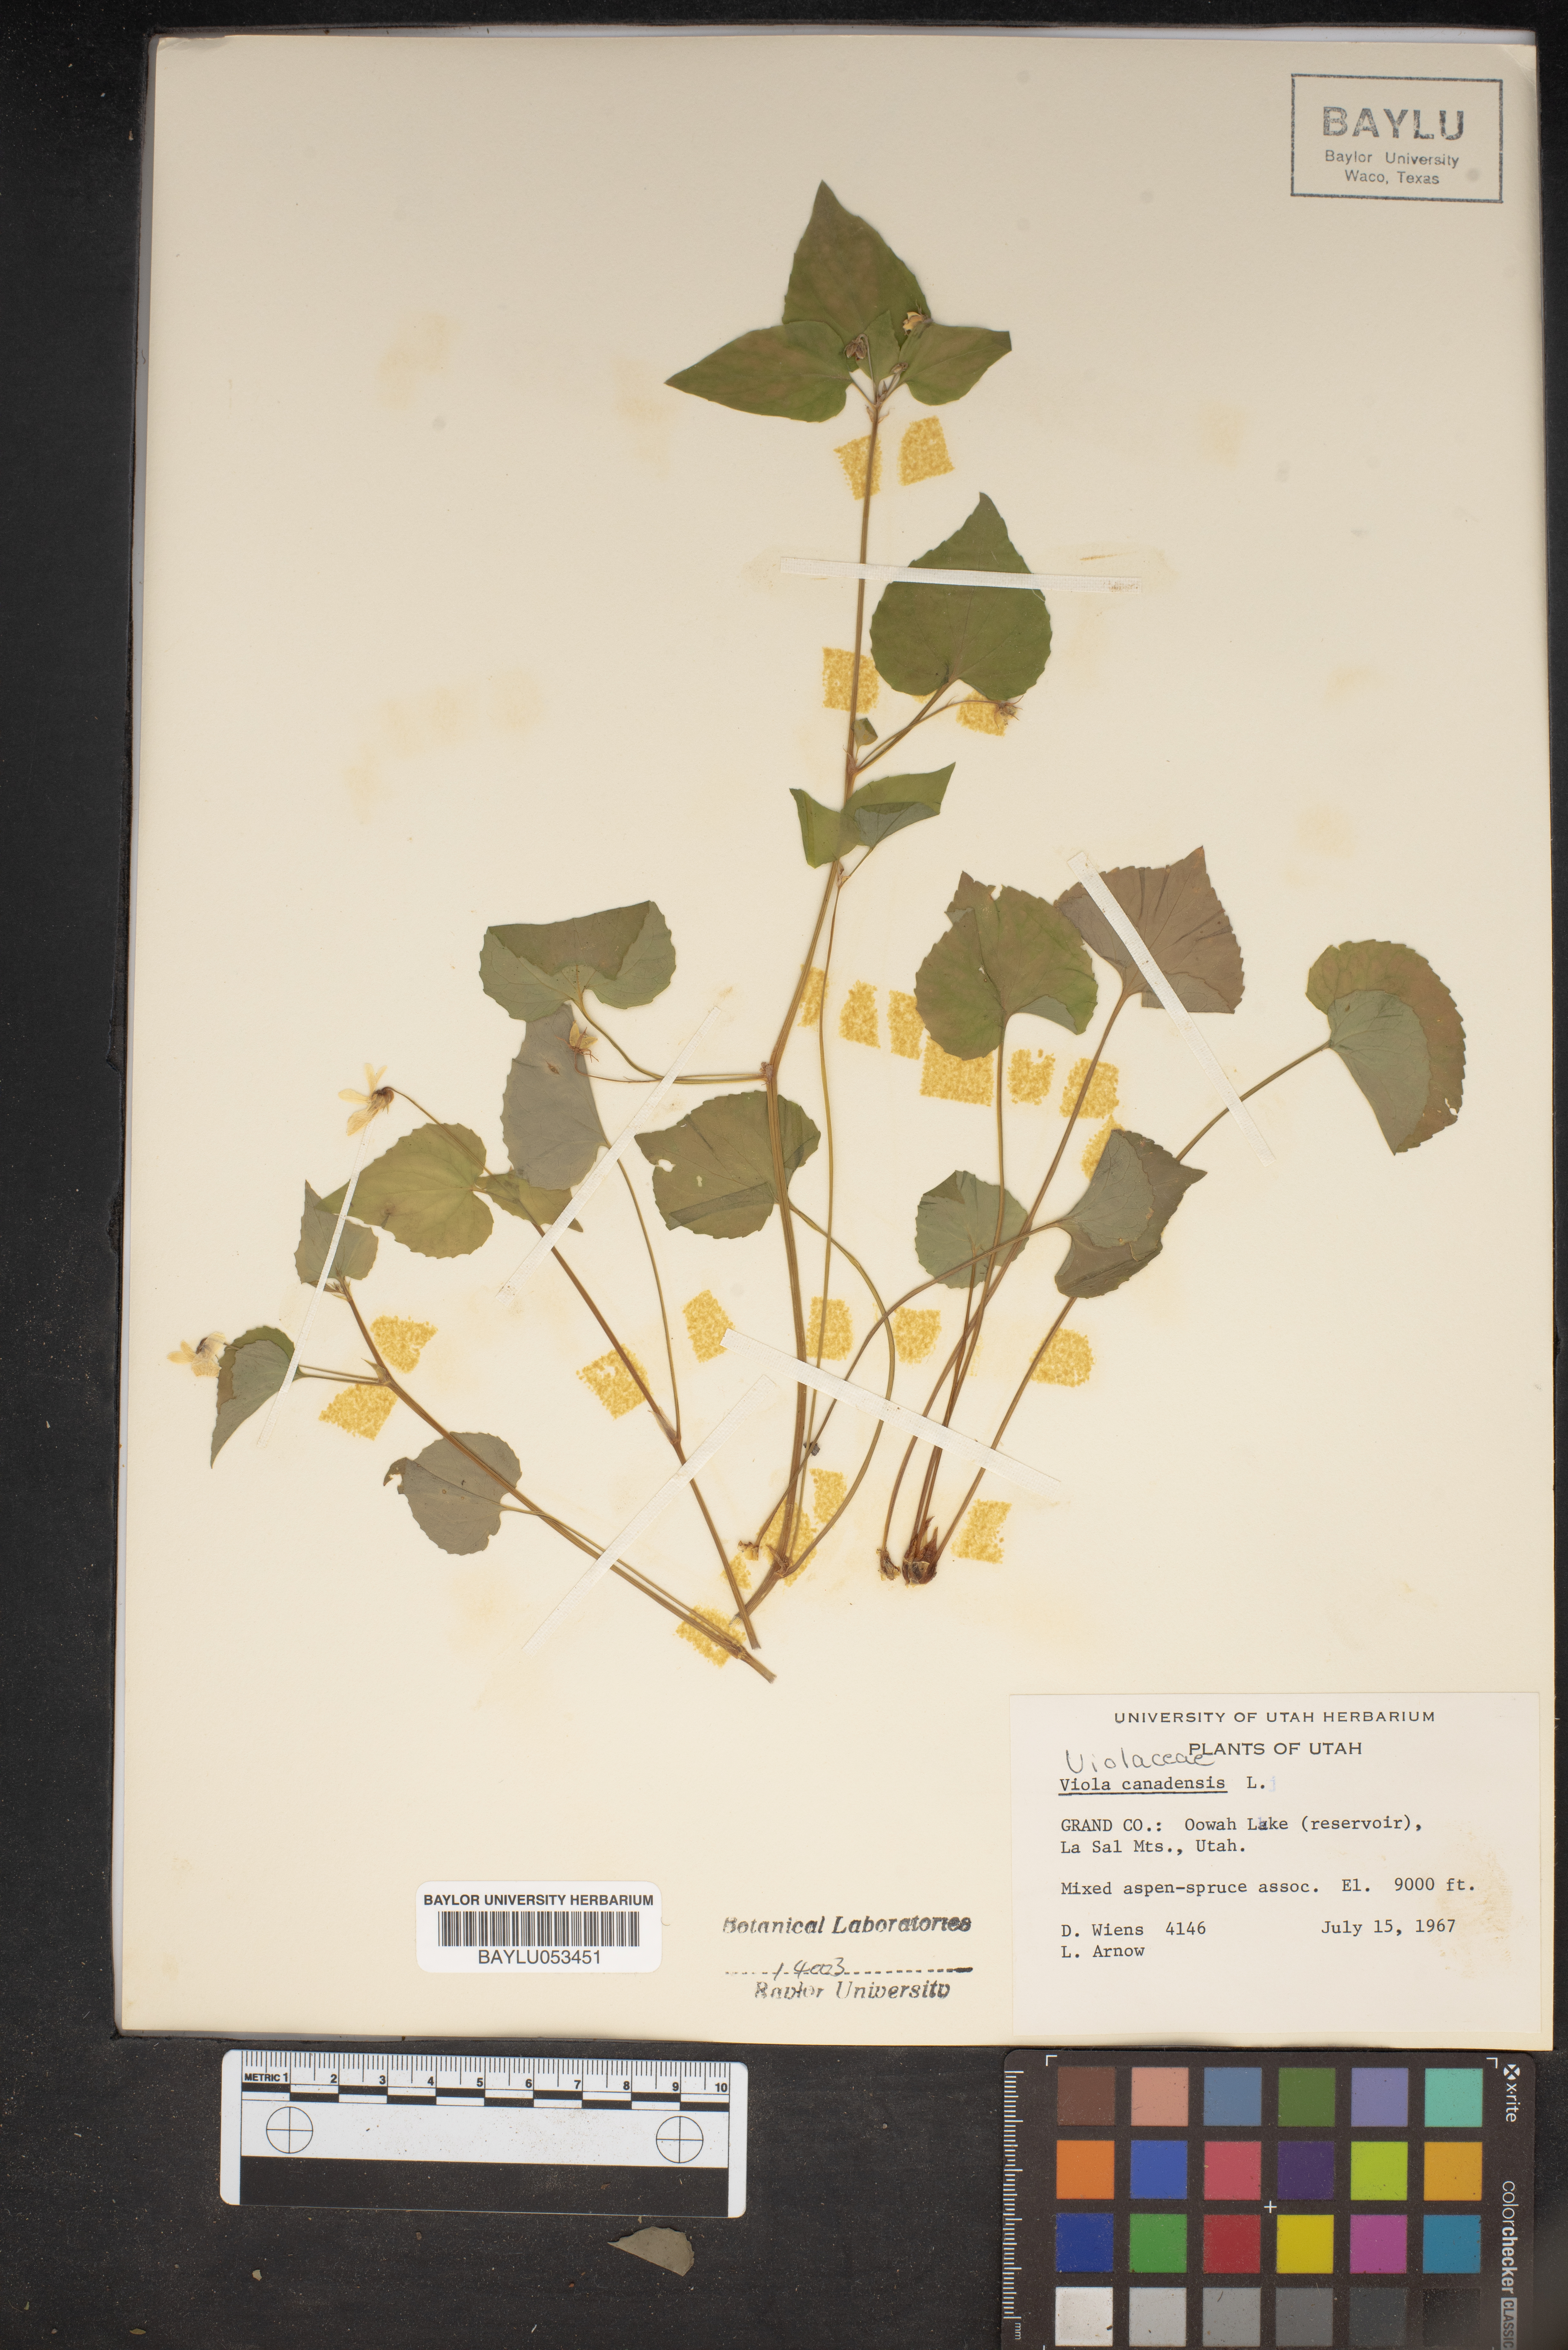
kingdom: Plantae
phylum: Tracheophyta
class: Magnoliopsida
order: Malpighiales
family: Violaceae
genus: Viola
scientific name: Viola canadensis
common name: Canada violet
